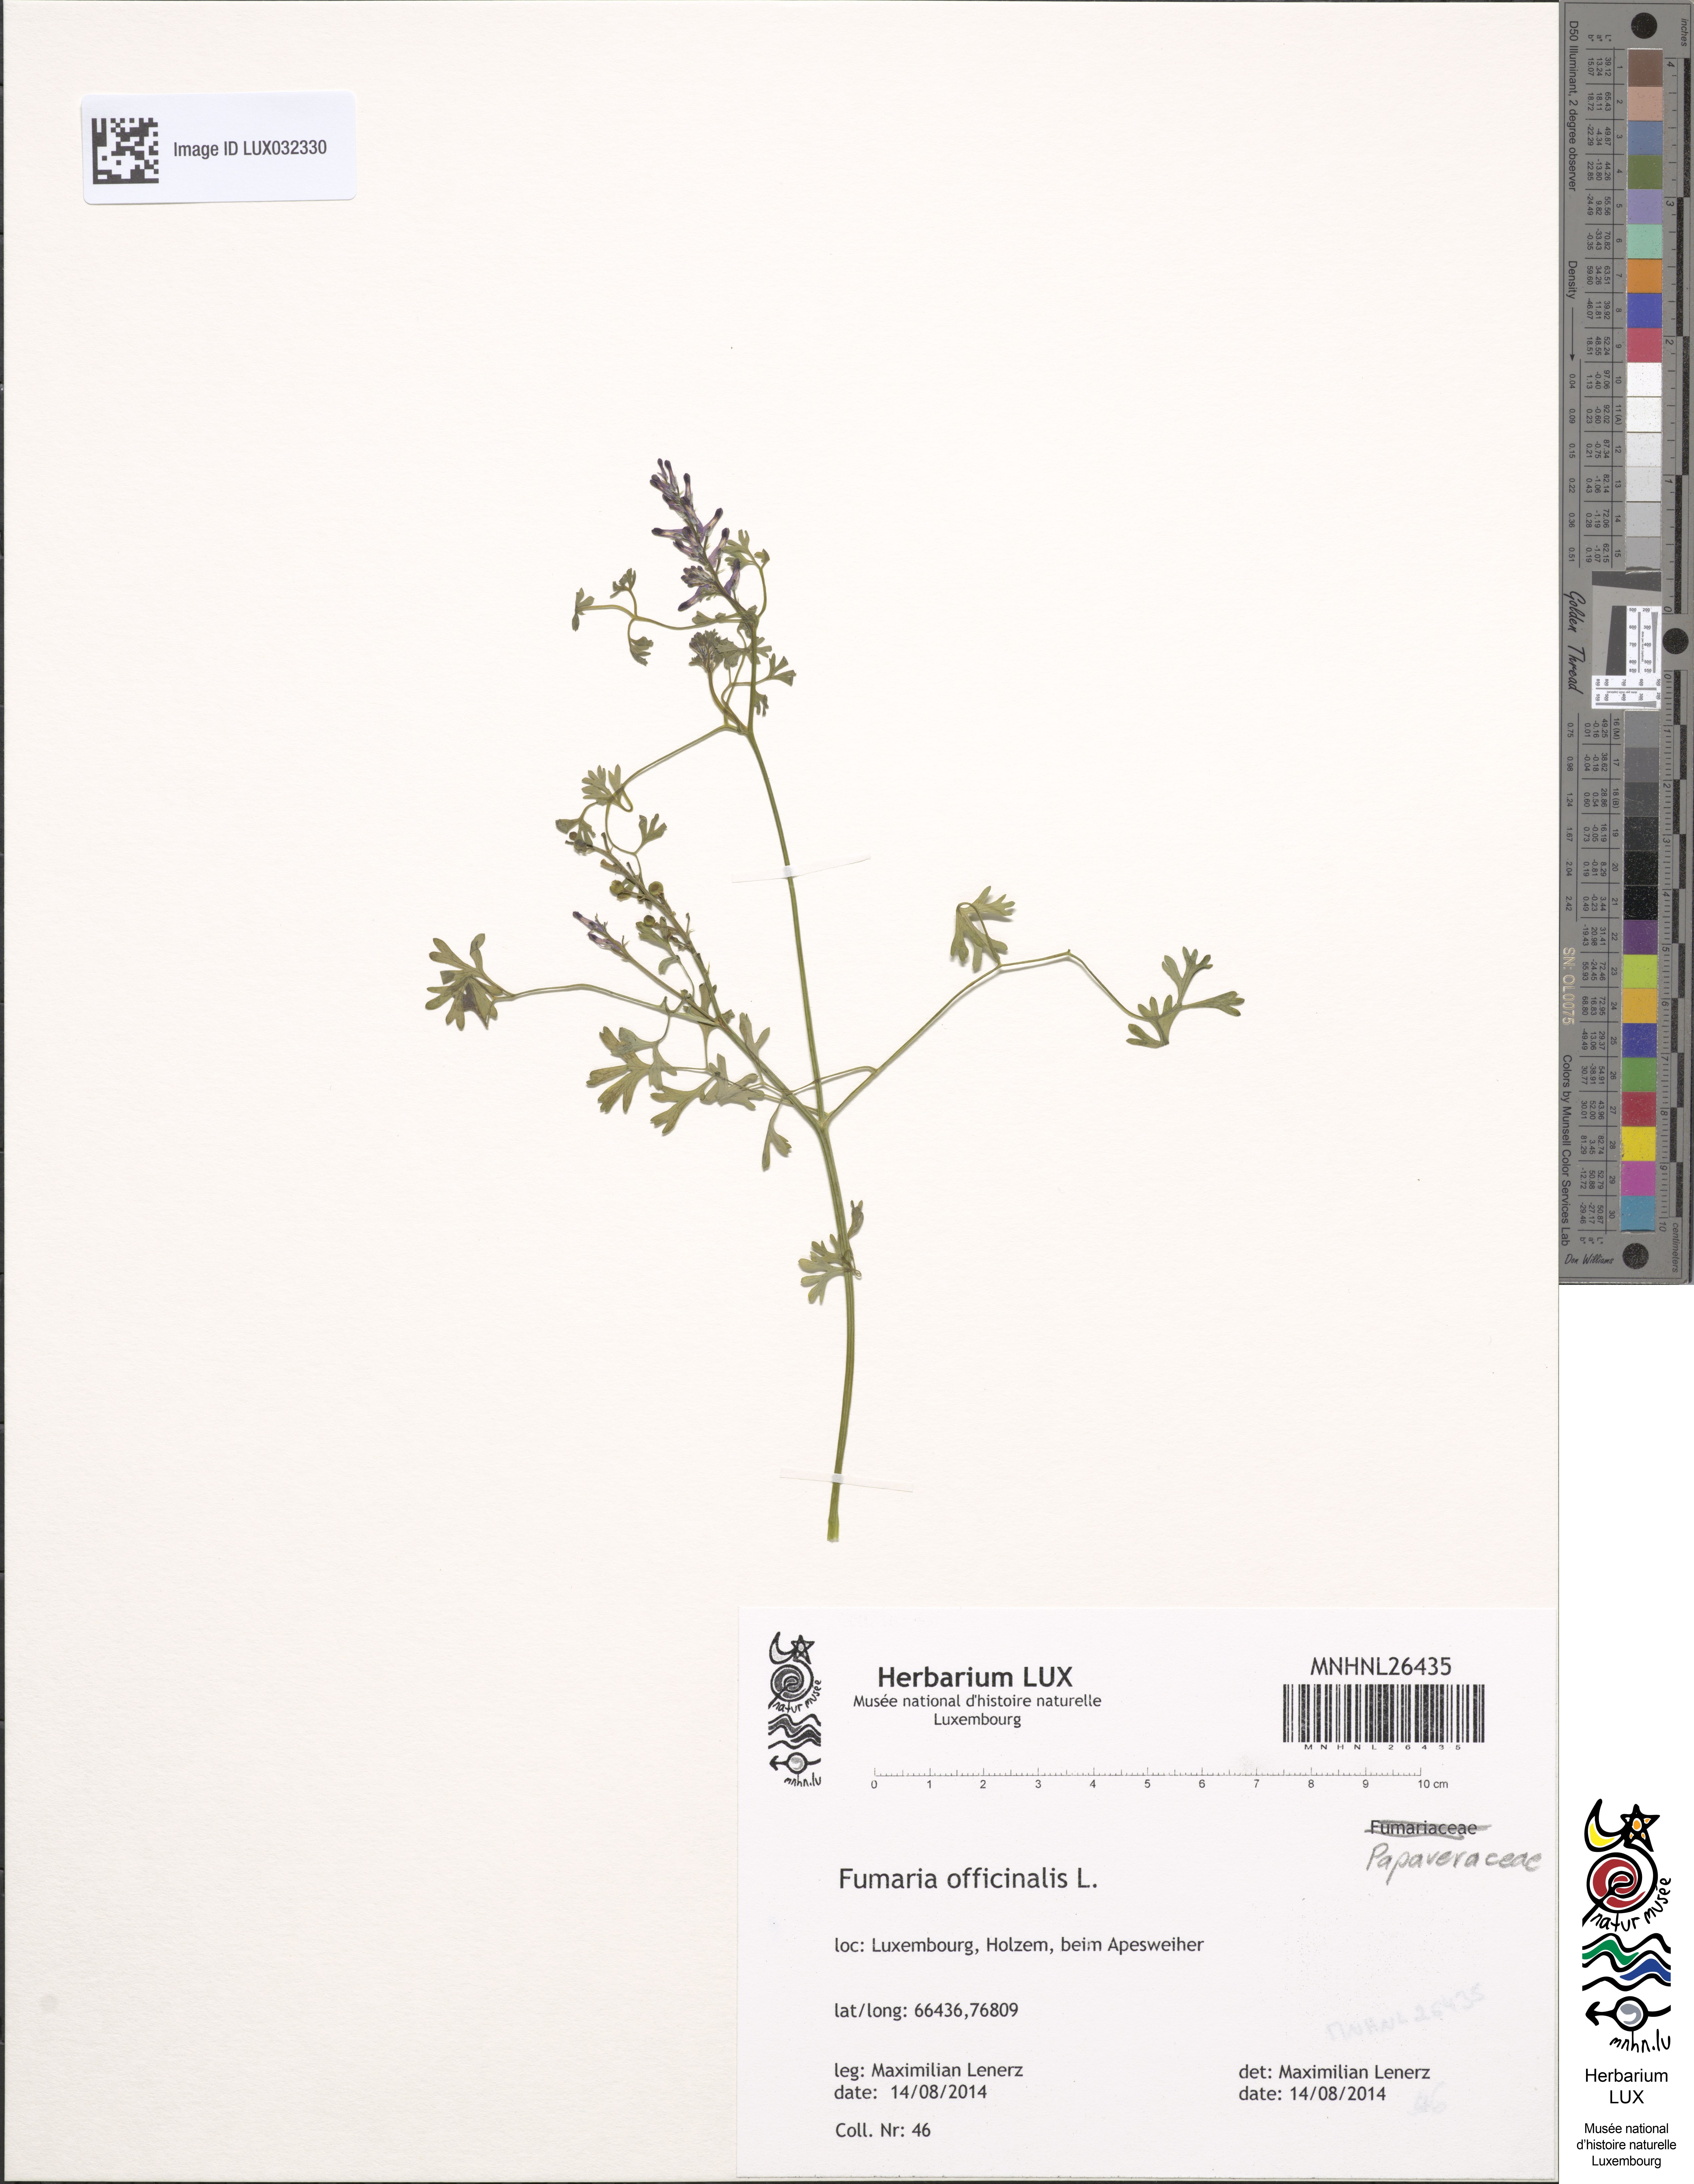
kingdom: Plantae
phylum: Tracheophyta
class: Magnoliopsida
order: Ranunculales
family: Papaveraceae
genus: Fumaria
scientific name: Fumaria officinalis
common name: Common fumitory
